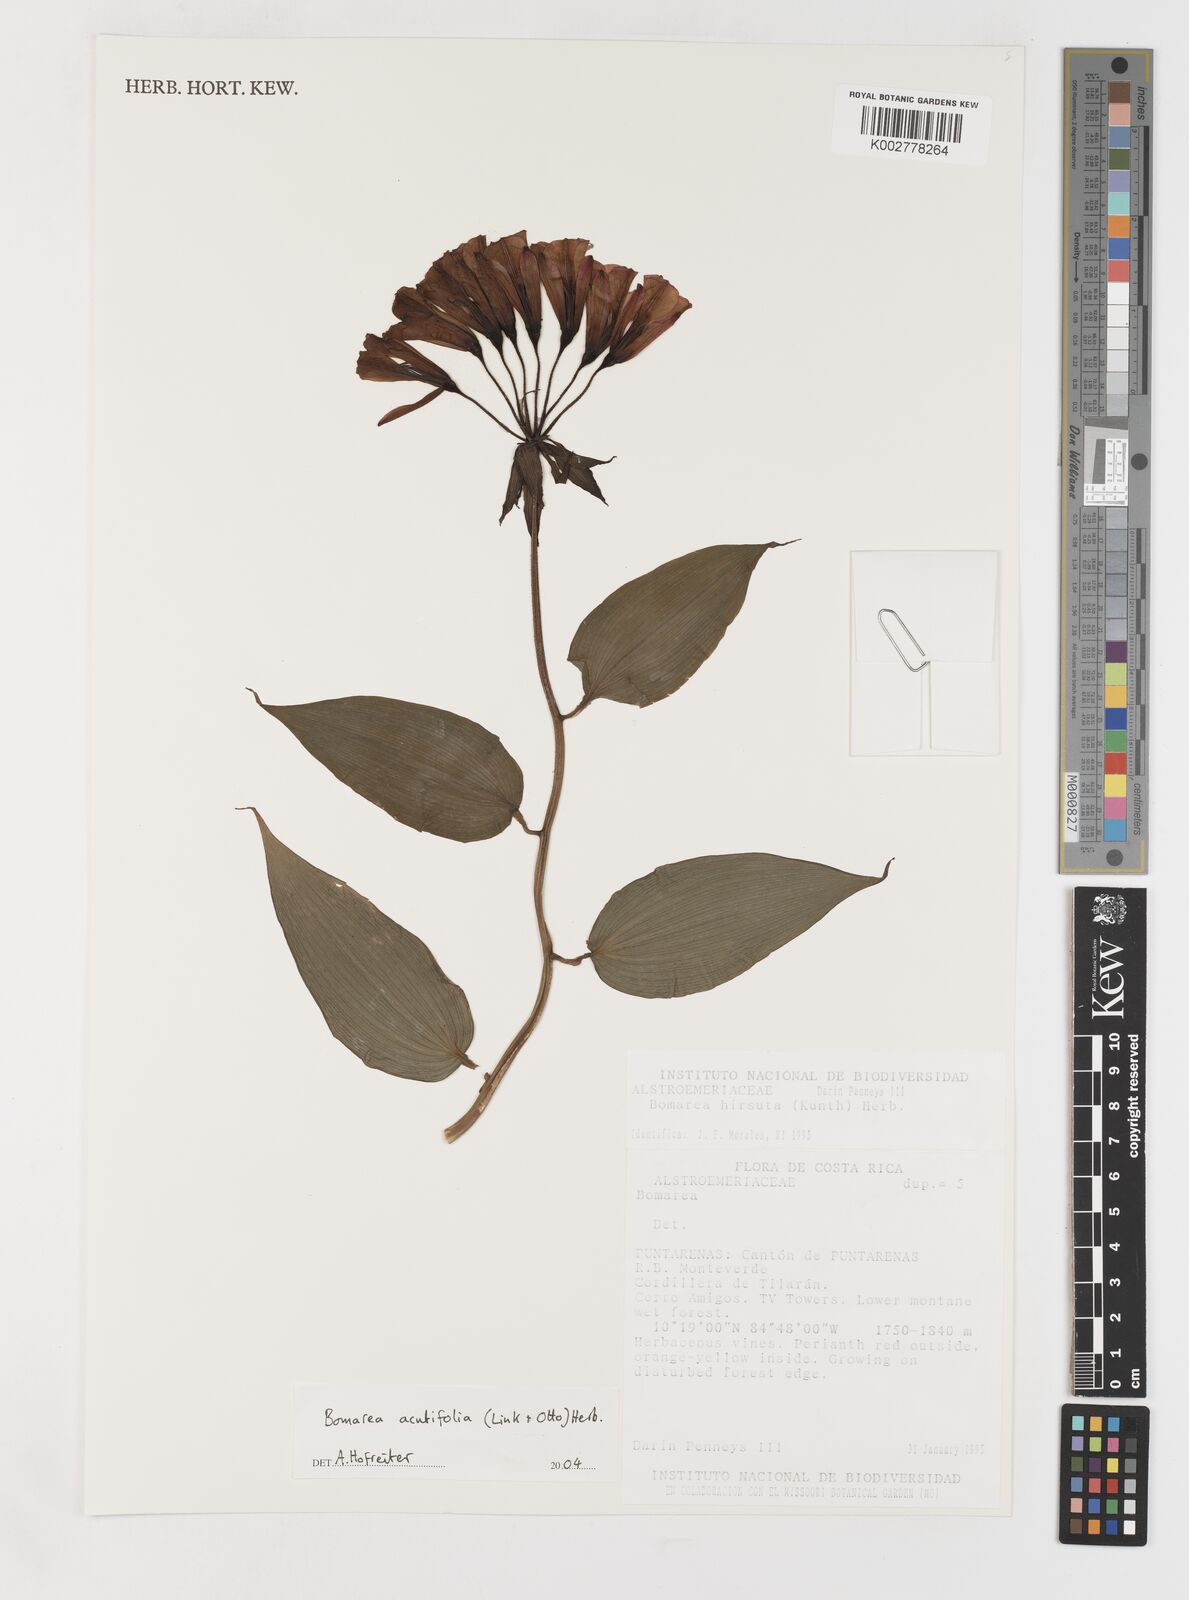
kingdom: Plantae
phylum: Tracheophyta
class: Liliopsida
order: Liliales
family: Alstroemeriaceae
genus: Bomarea
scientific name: Bomarea acutifolia
